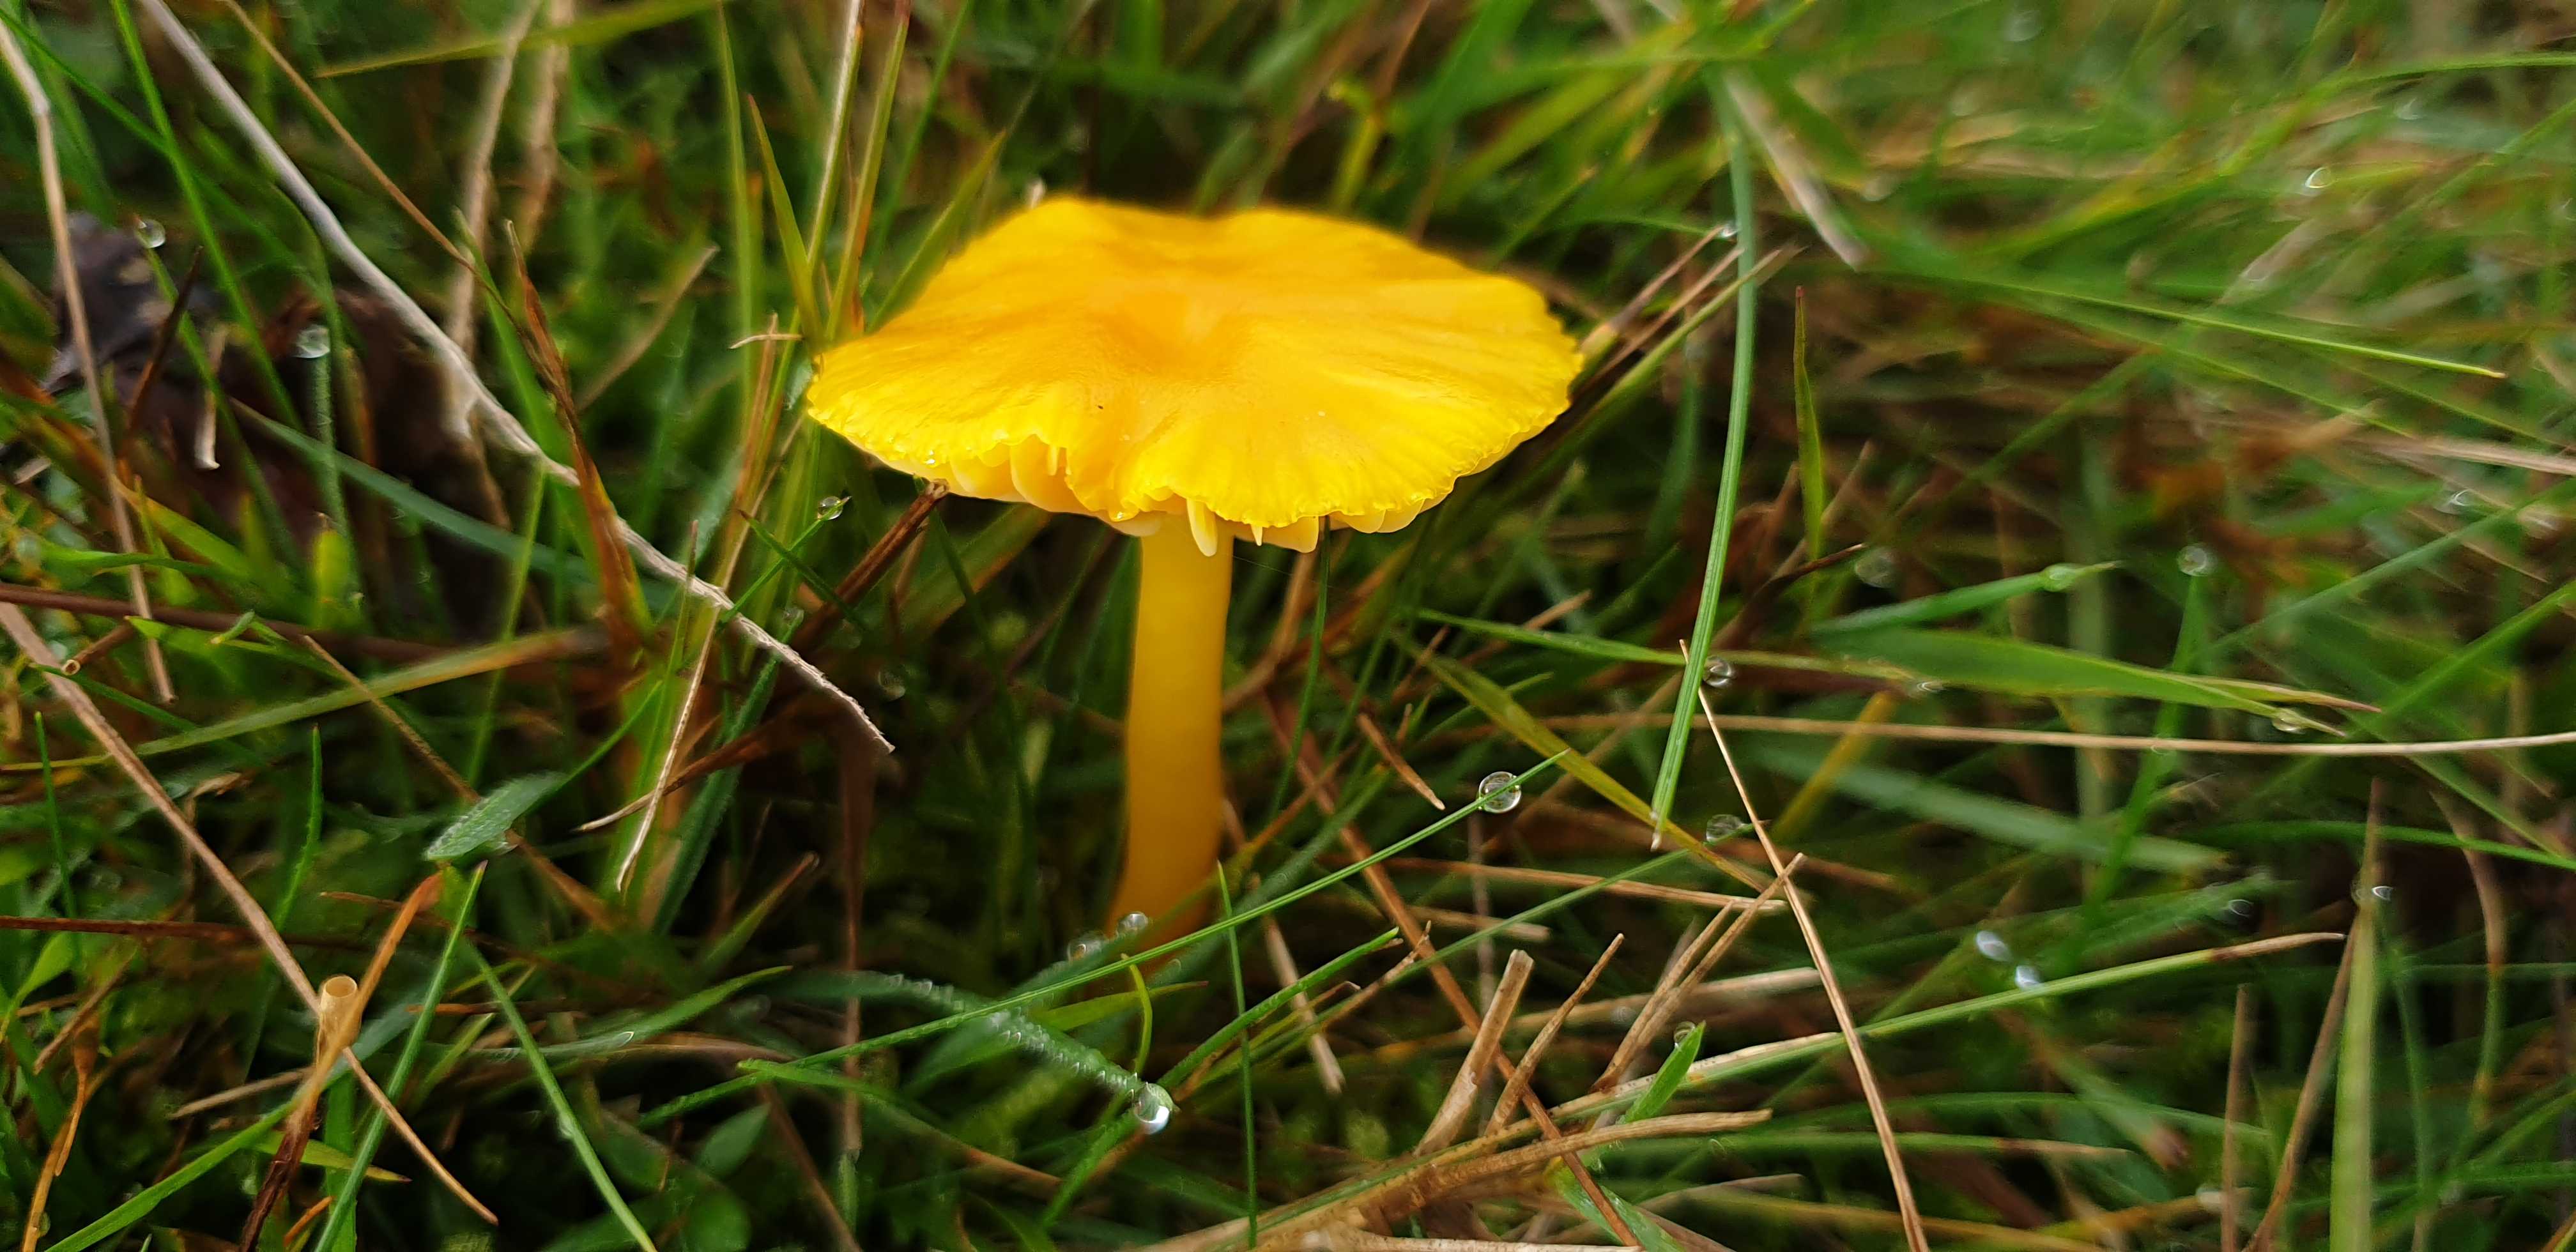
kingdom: Fungi
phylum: Basidiomycota
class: Agaricomycetes
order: Agaricales
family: Hygrophoraceae
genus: Hygrocybe
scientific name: Hygrocybe
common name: vokshat
